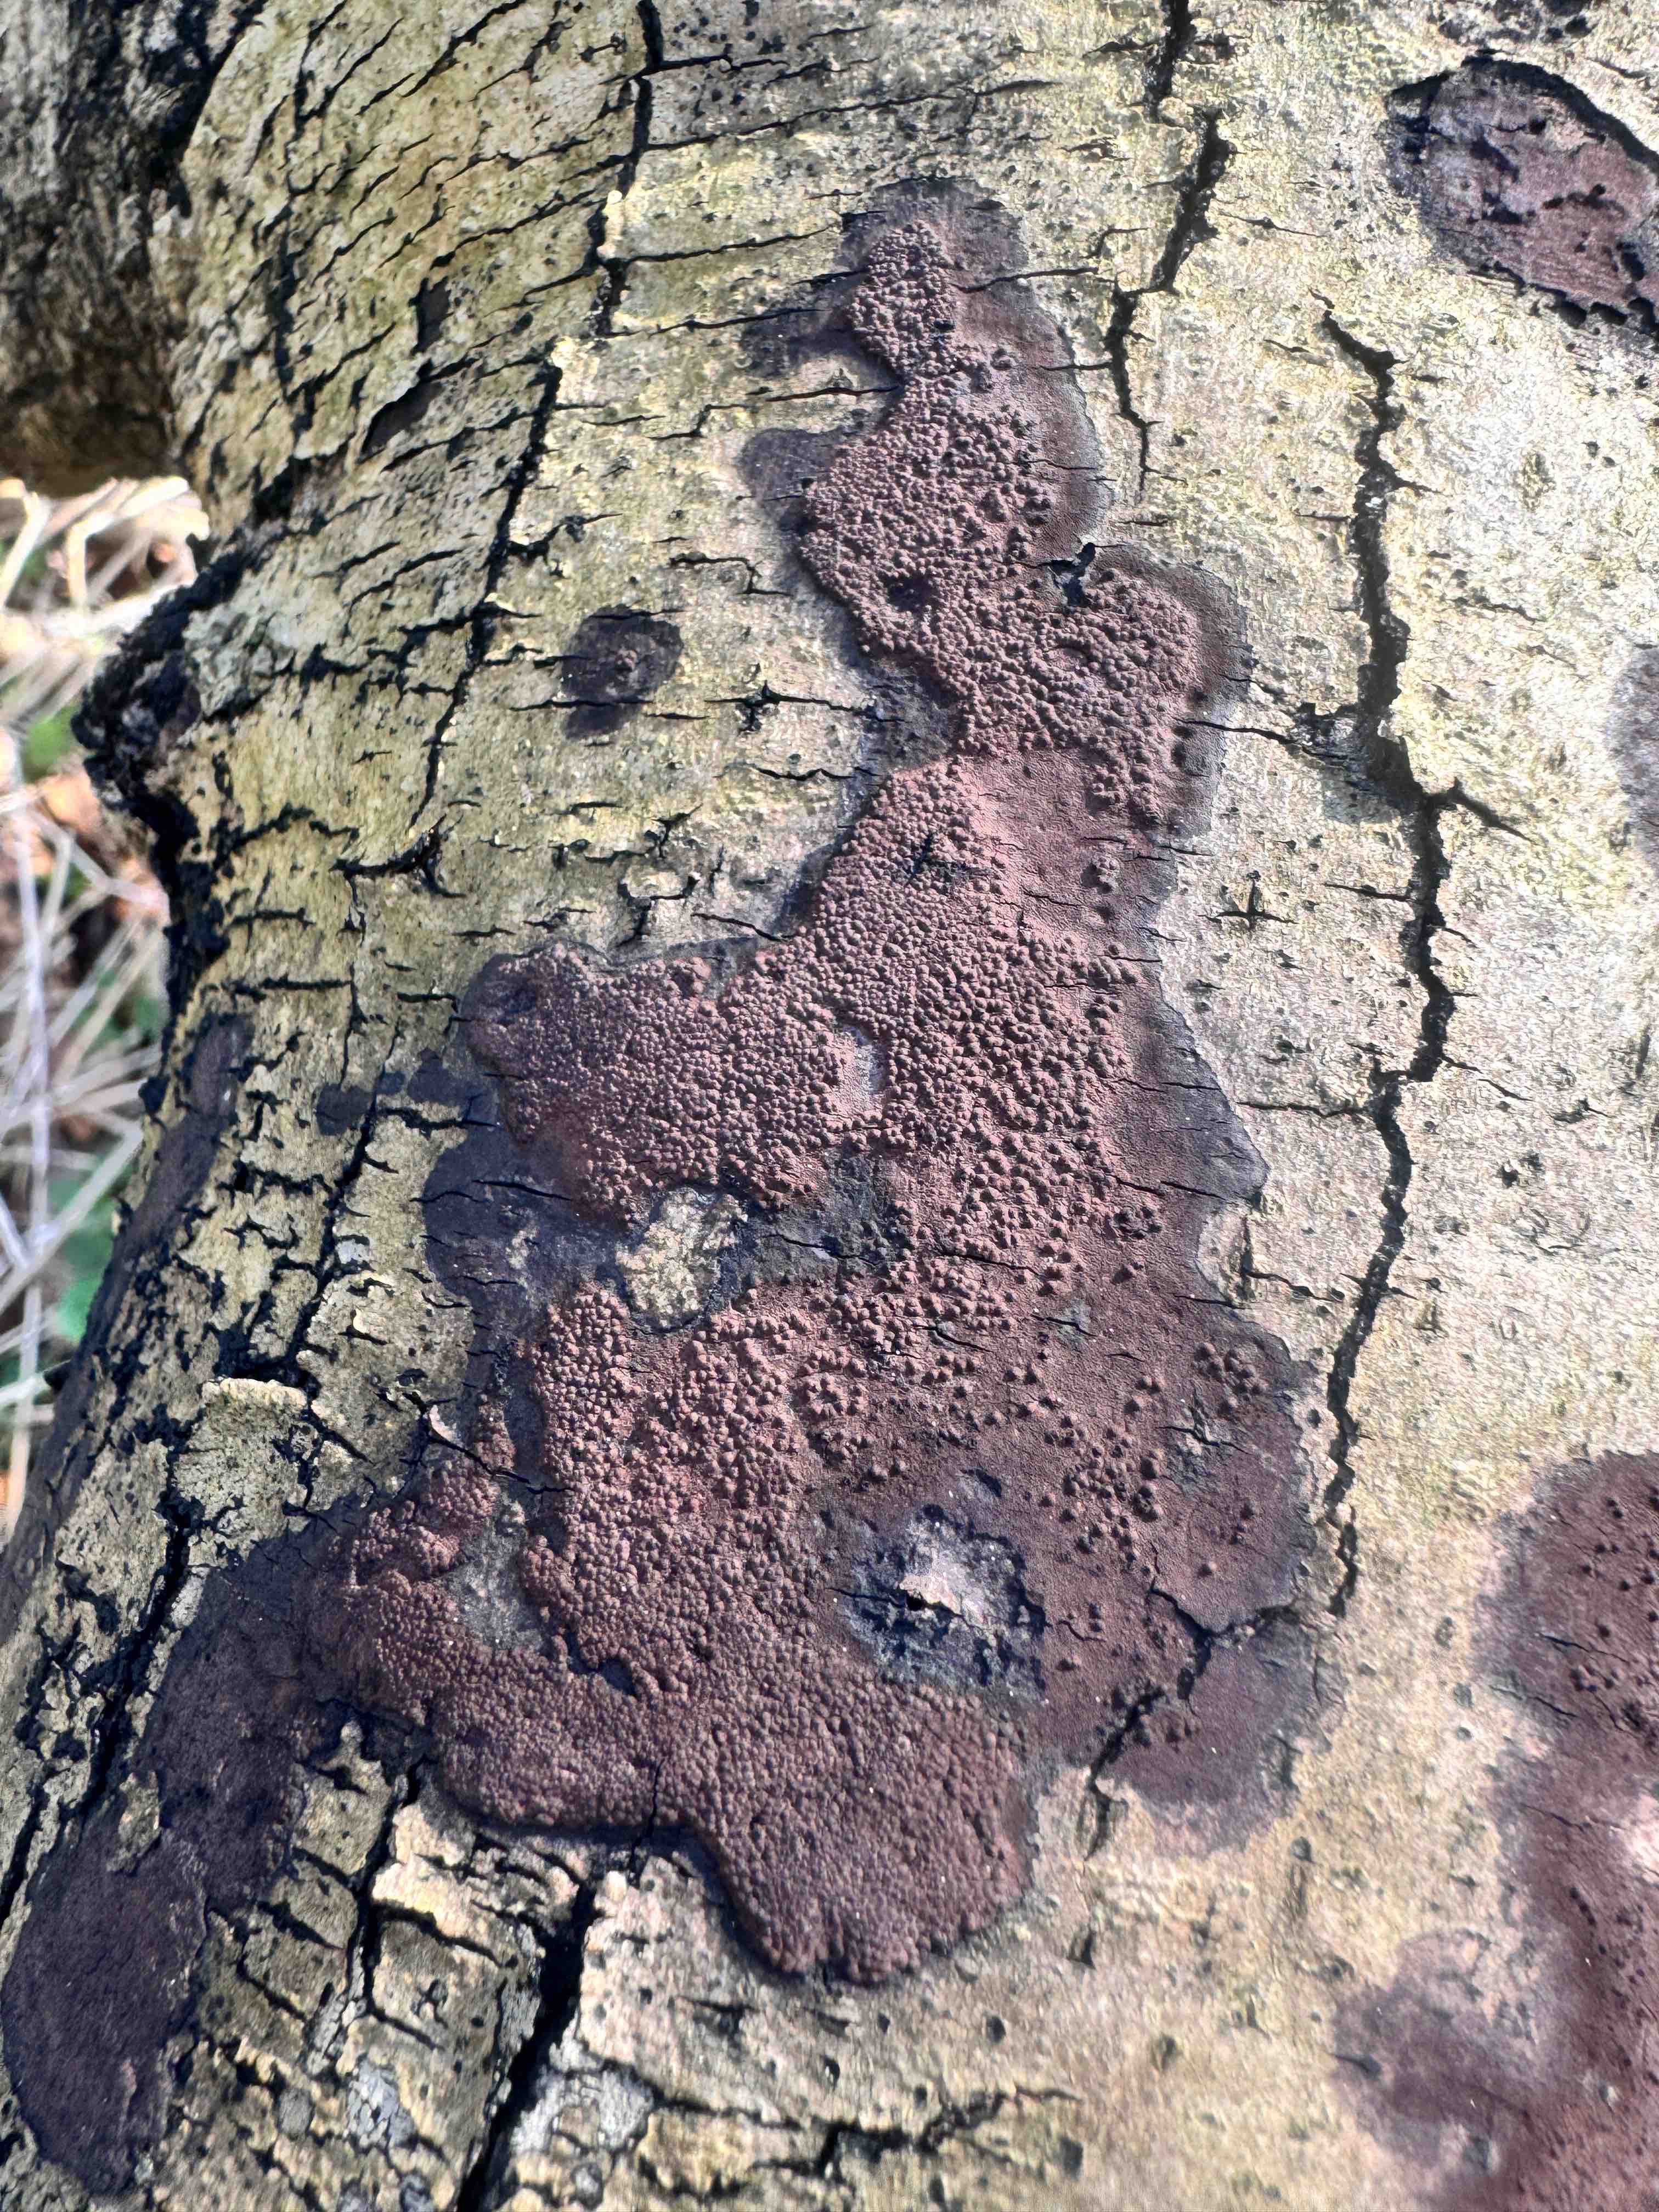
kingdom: Fungi
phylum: Ascomycota
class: Sordariomycetes
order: Xylariales
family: Hypoxylaceae
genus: Hypoxylon
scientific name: Hypoxylon petriniae
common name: nedsænket kulbær
